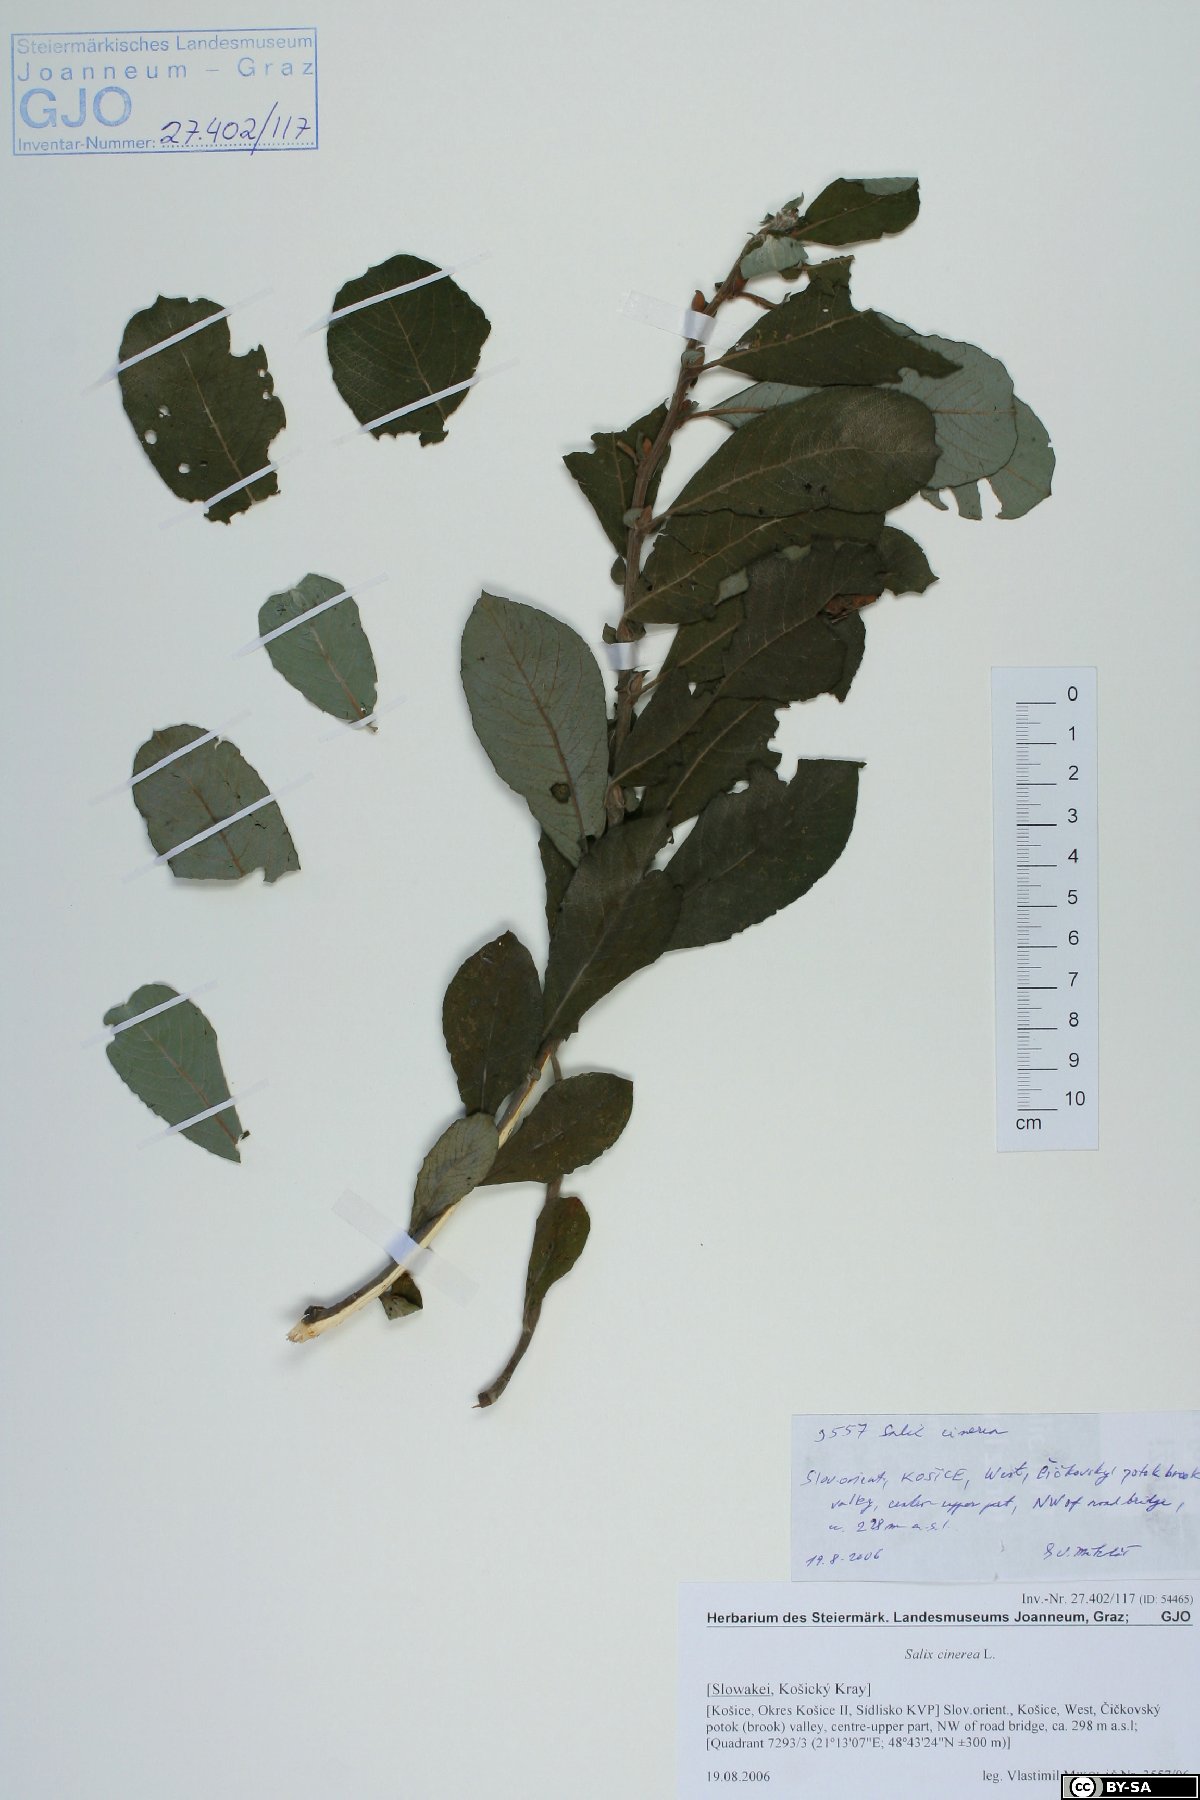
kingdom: Plantae
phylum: Tracheophyta
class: Magnoliopsida
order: Malpighiales
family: Salicaceae
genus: Salix
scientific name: Salix cinerea
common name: Common sallow
